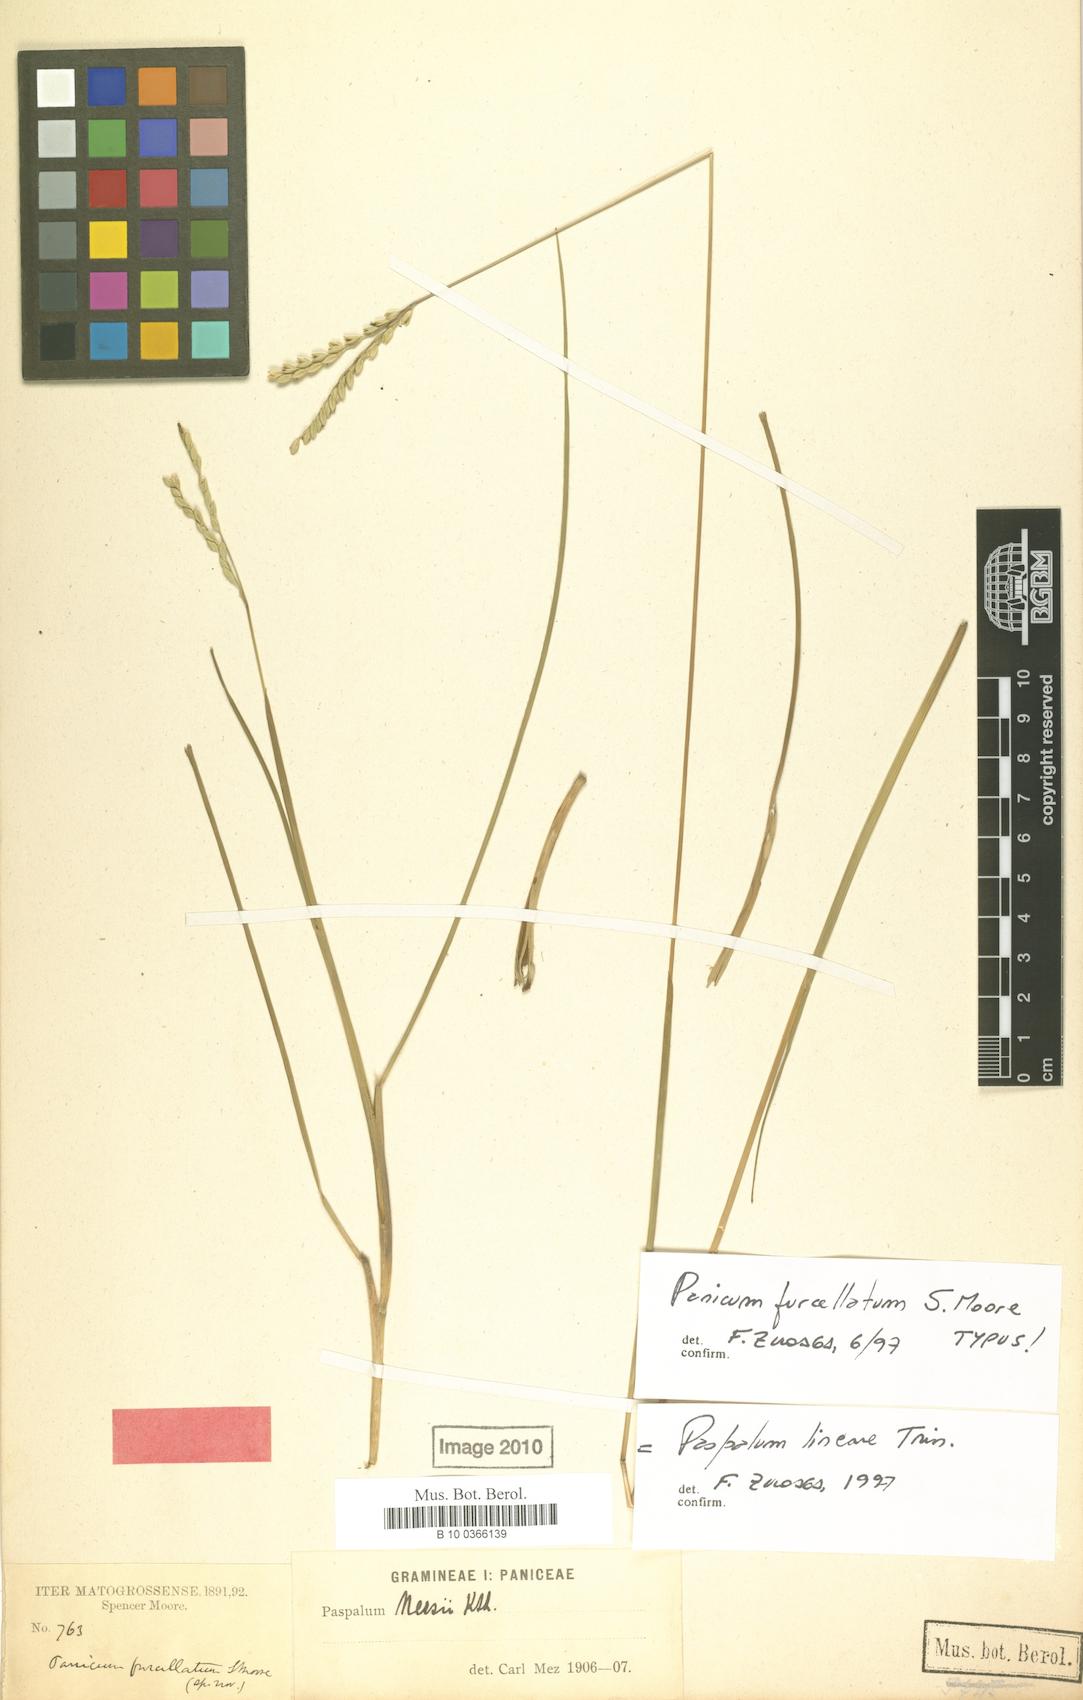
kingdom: Plantae
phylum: Tracheophyta
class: Liliopsida
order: Poales
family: Poaceae
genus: Paspalum
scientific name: Paspalum lineare
